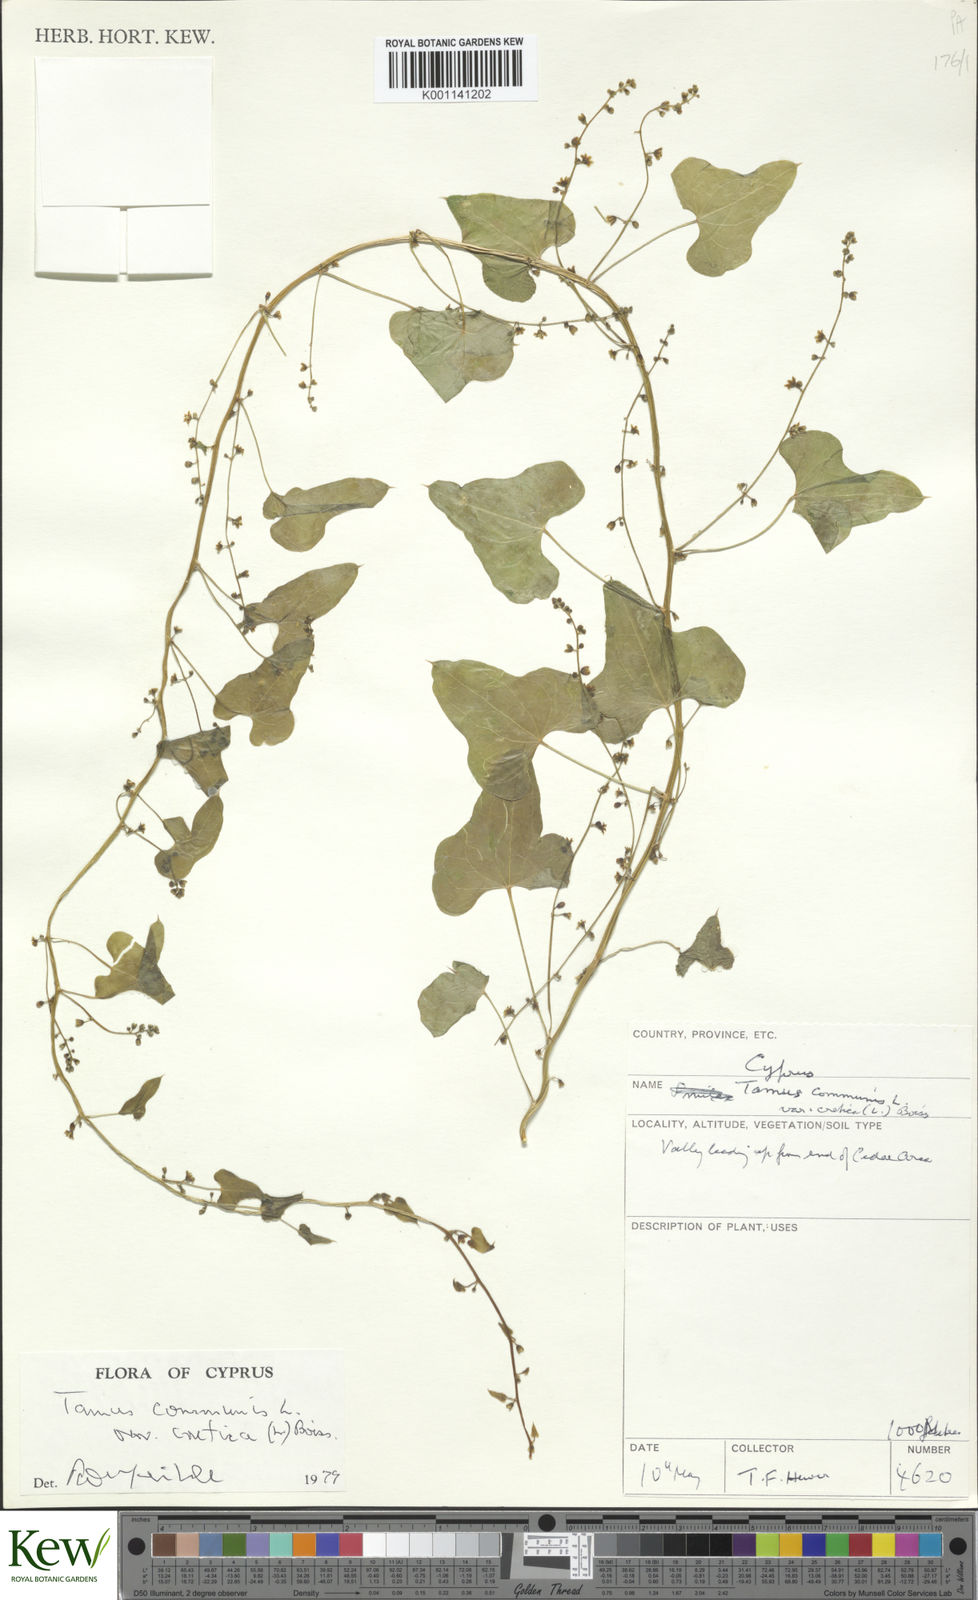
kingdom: Plantae
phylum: Tracheophyta
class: Liliopsida
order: Dioscoreales
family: Dioscoreaceae
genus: Dioscorea
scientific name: Dioscorea communis
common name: Black-bindweed
